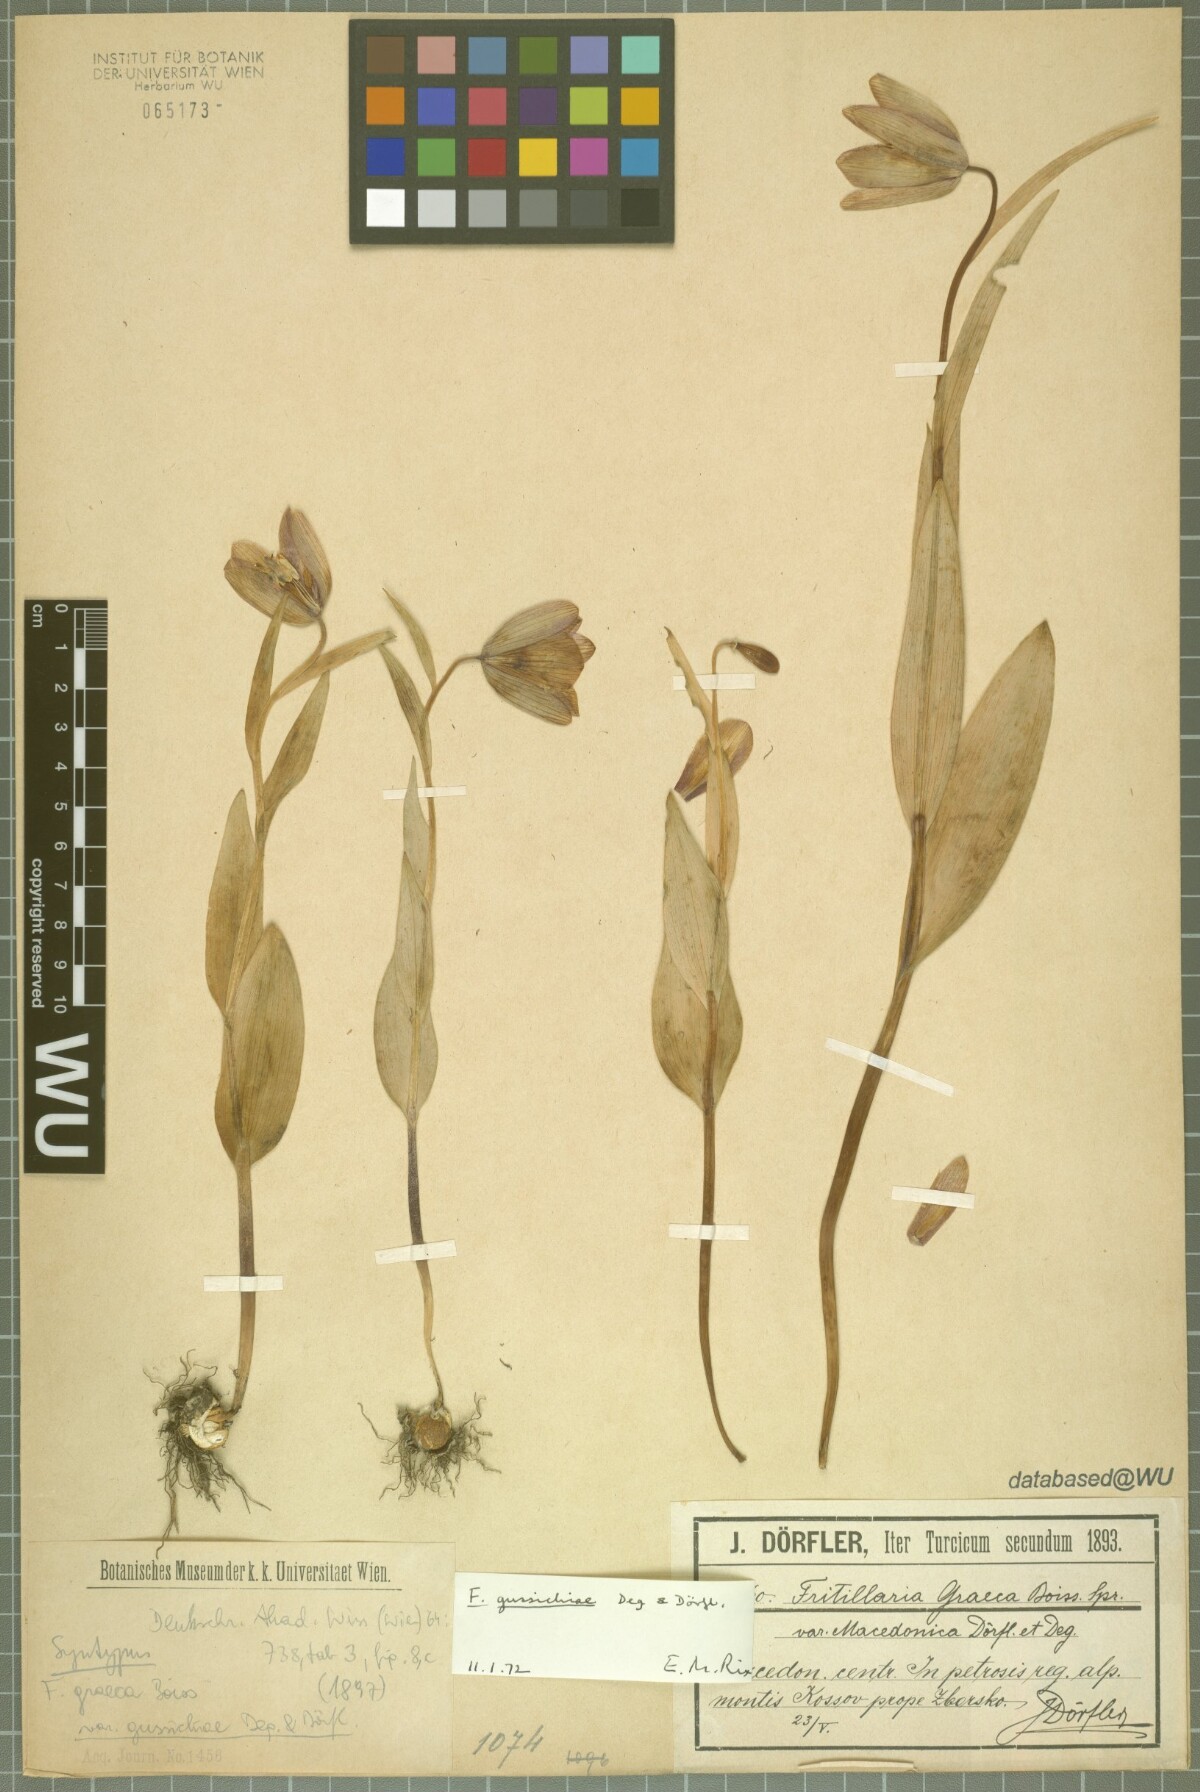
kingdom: Plantae
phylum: Tracheophyta
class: Liliopsida
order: Liliales
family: Liliaceae
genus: Fritillaria
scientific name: Fritillaria gussichiae
